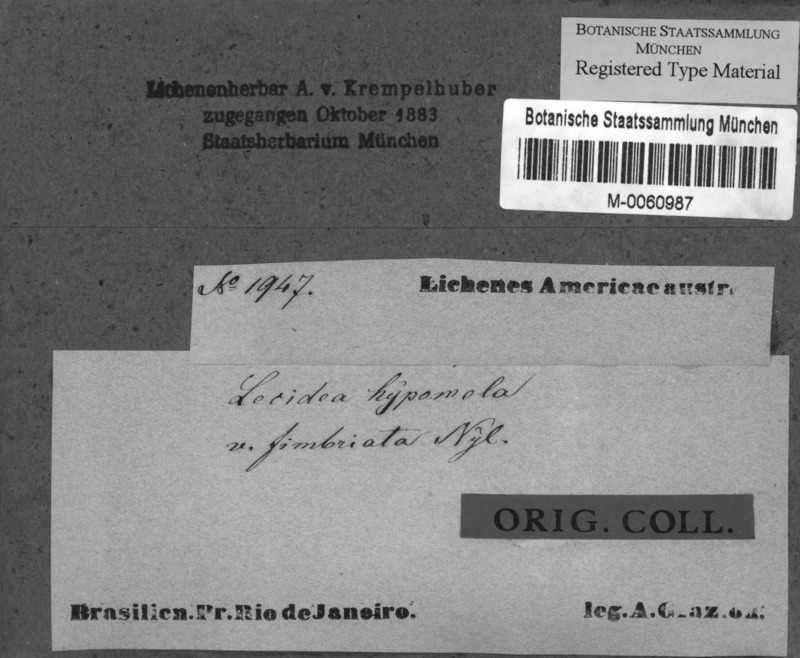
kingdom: Fungi
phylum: Ascomycota
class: Lecanoromycetes
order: Lecideales
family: Lecideaceae
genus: Lecidea
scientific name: Lecidea hypomela
